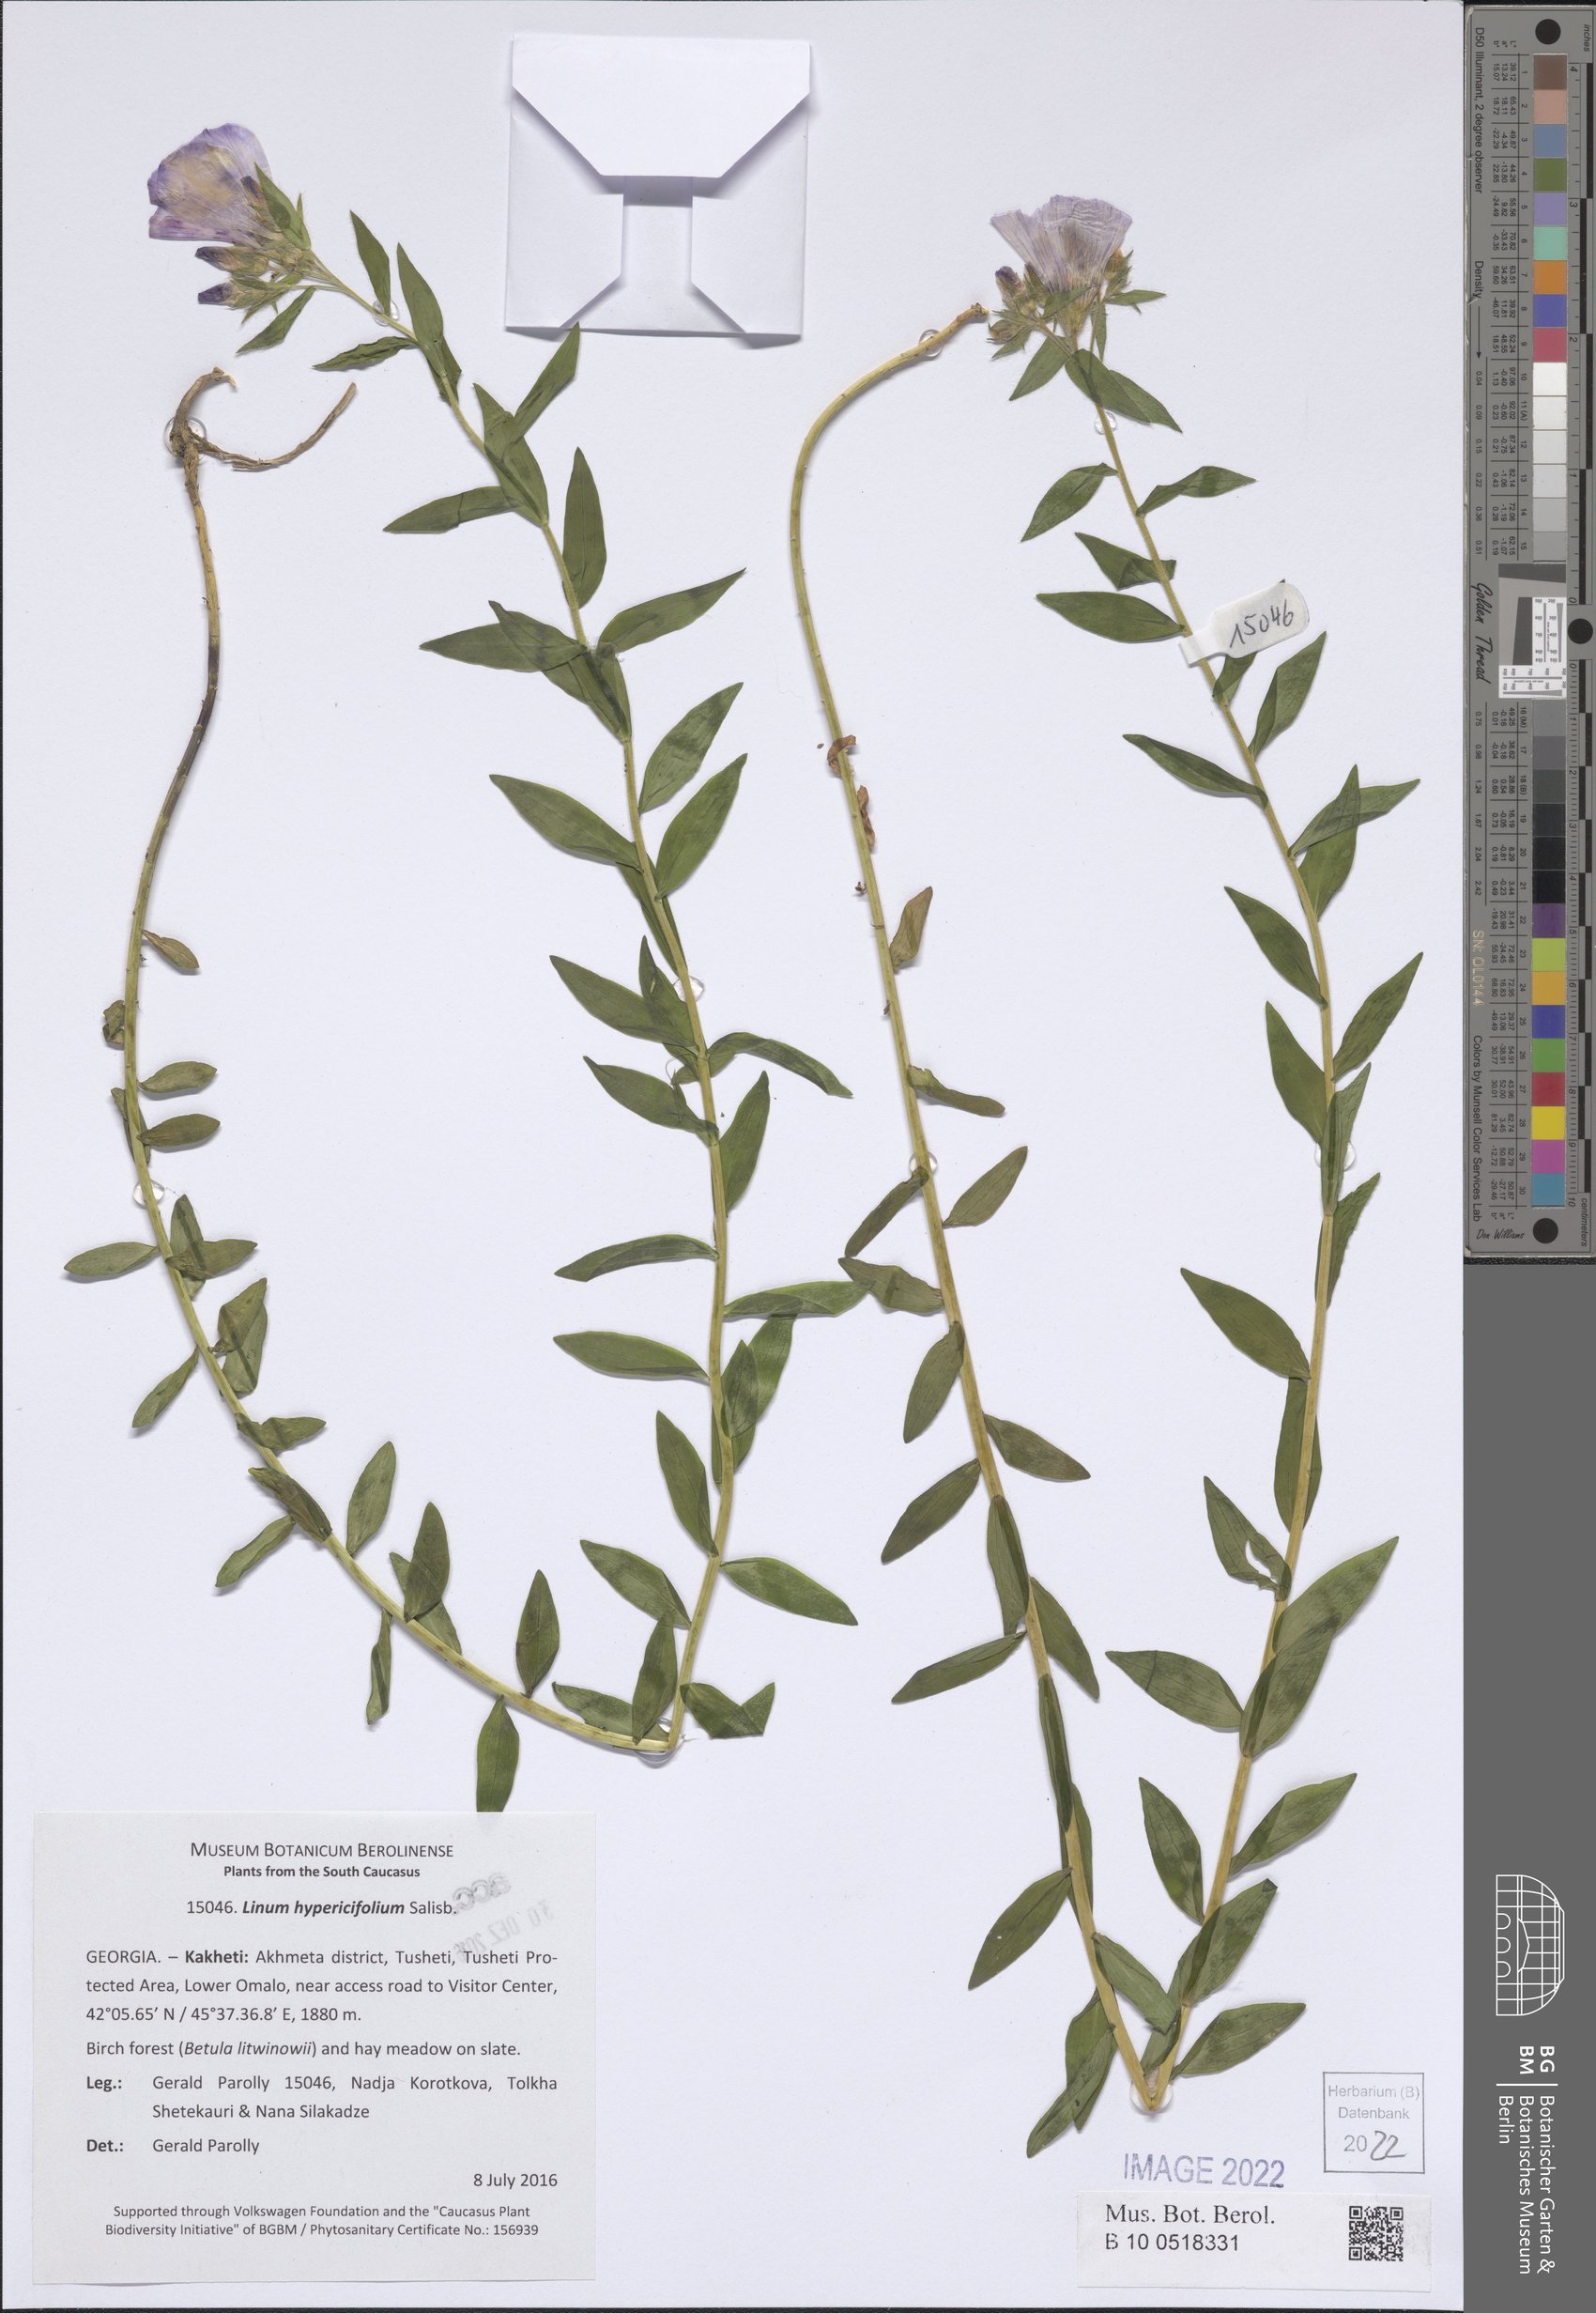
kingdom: Plantae
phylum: Tracheophyta
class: Magnoliopsida
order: Malpighiales
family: Linaceae
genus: Linum
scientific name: Linum orizabae
